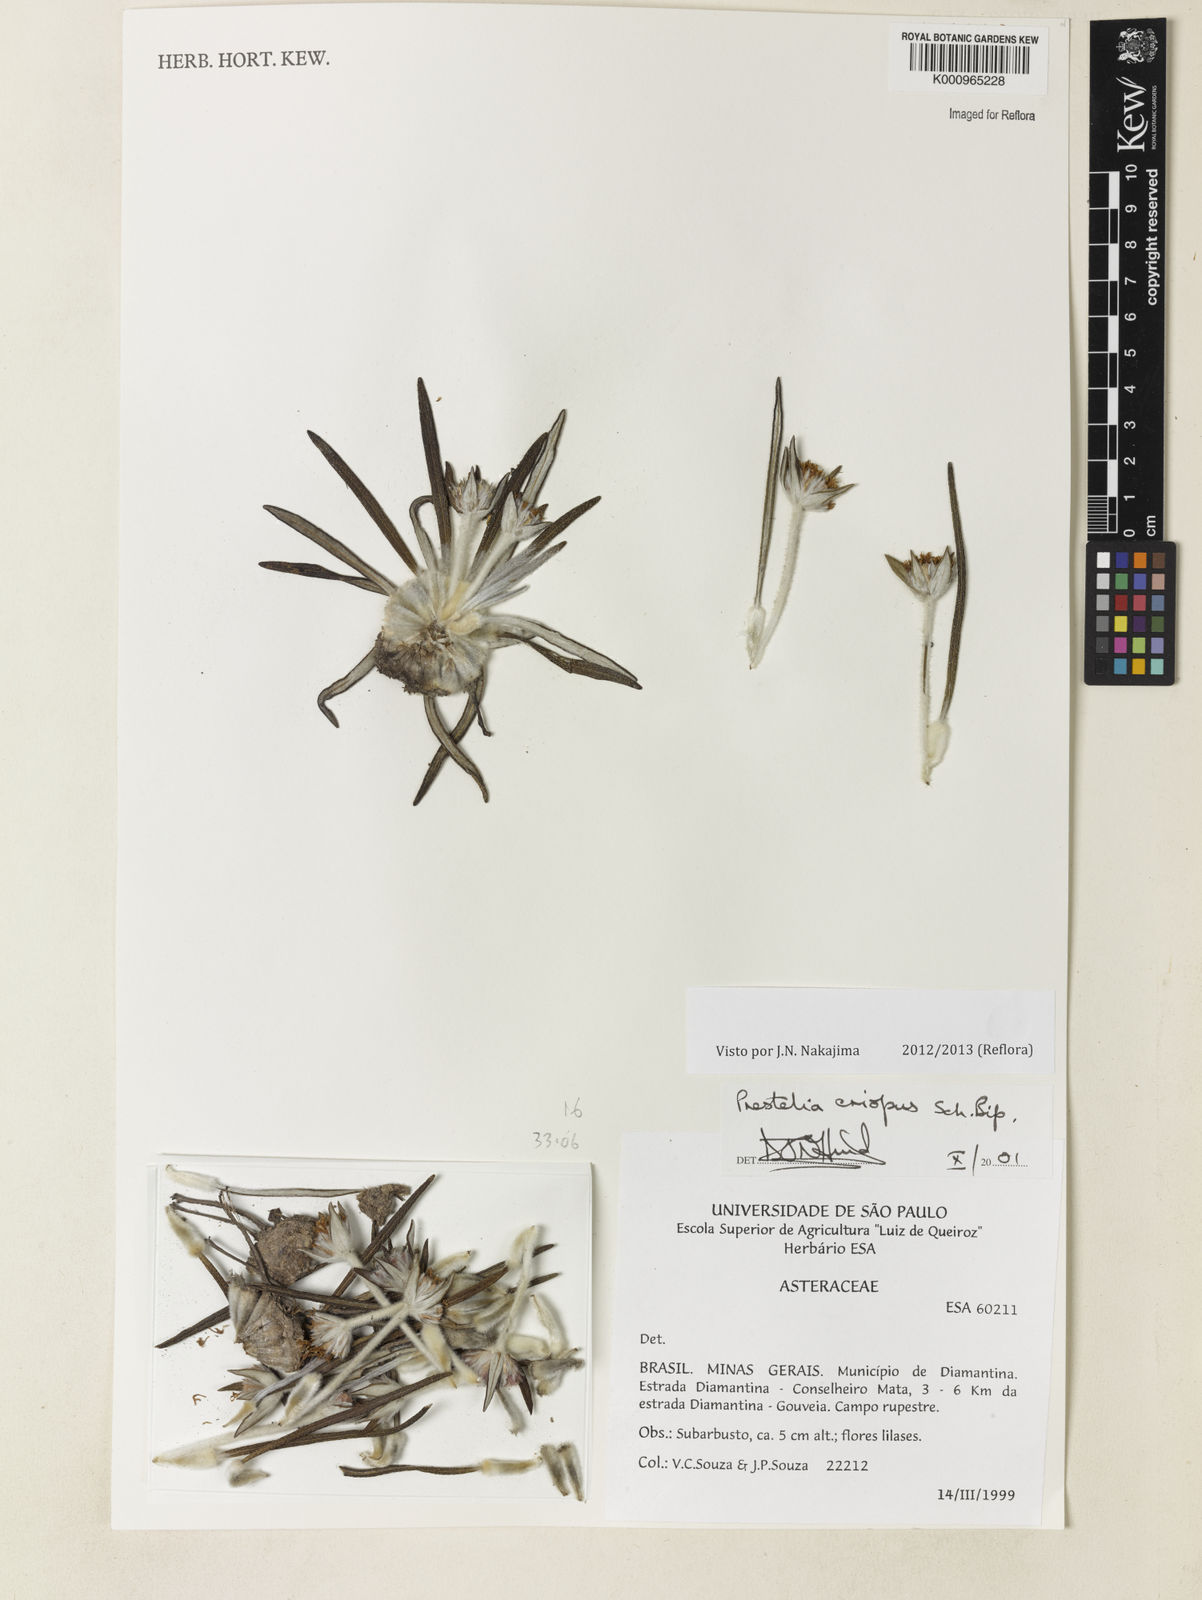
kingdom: Plantae
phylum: Tracheophyta
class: Magnoliopsida
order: Asterales
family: Asteraceae
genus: Prestelia
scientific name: Prestelia eriopus
